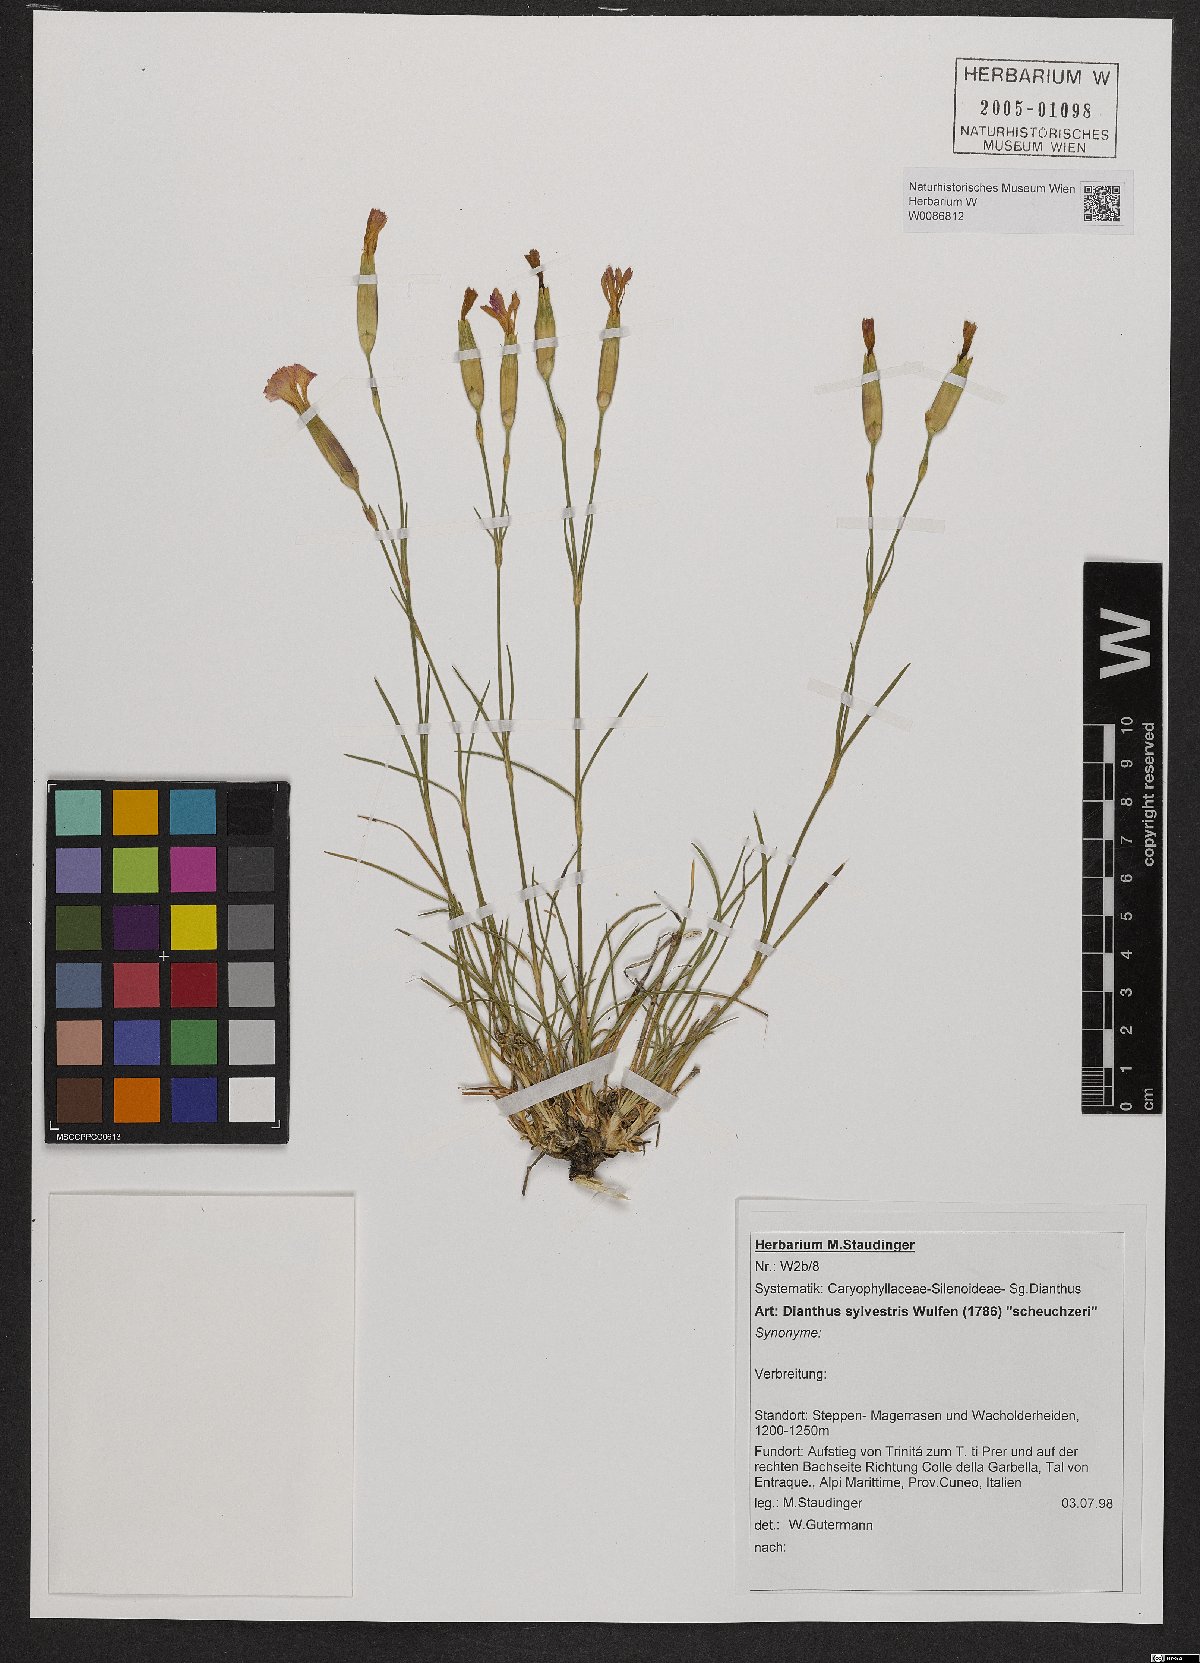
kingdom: Plantae
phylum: Tracheophyta
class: Magnoliopsida
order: Caryophyllales
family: Caryophyllaceae
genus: Dianthus
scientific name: Dianthus sylvestris
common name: Wood pink
